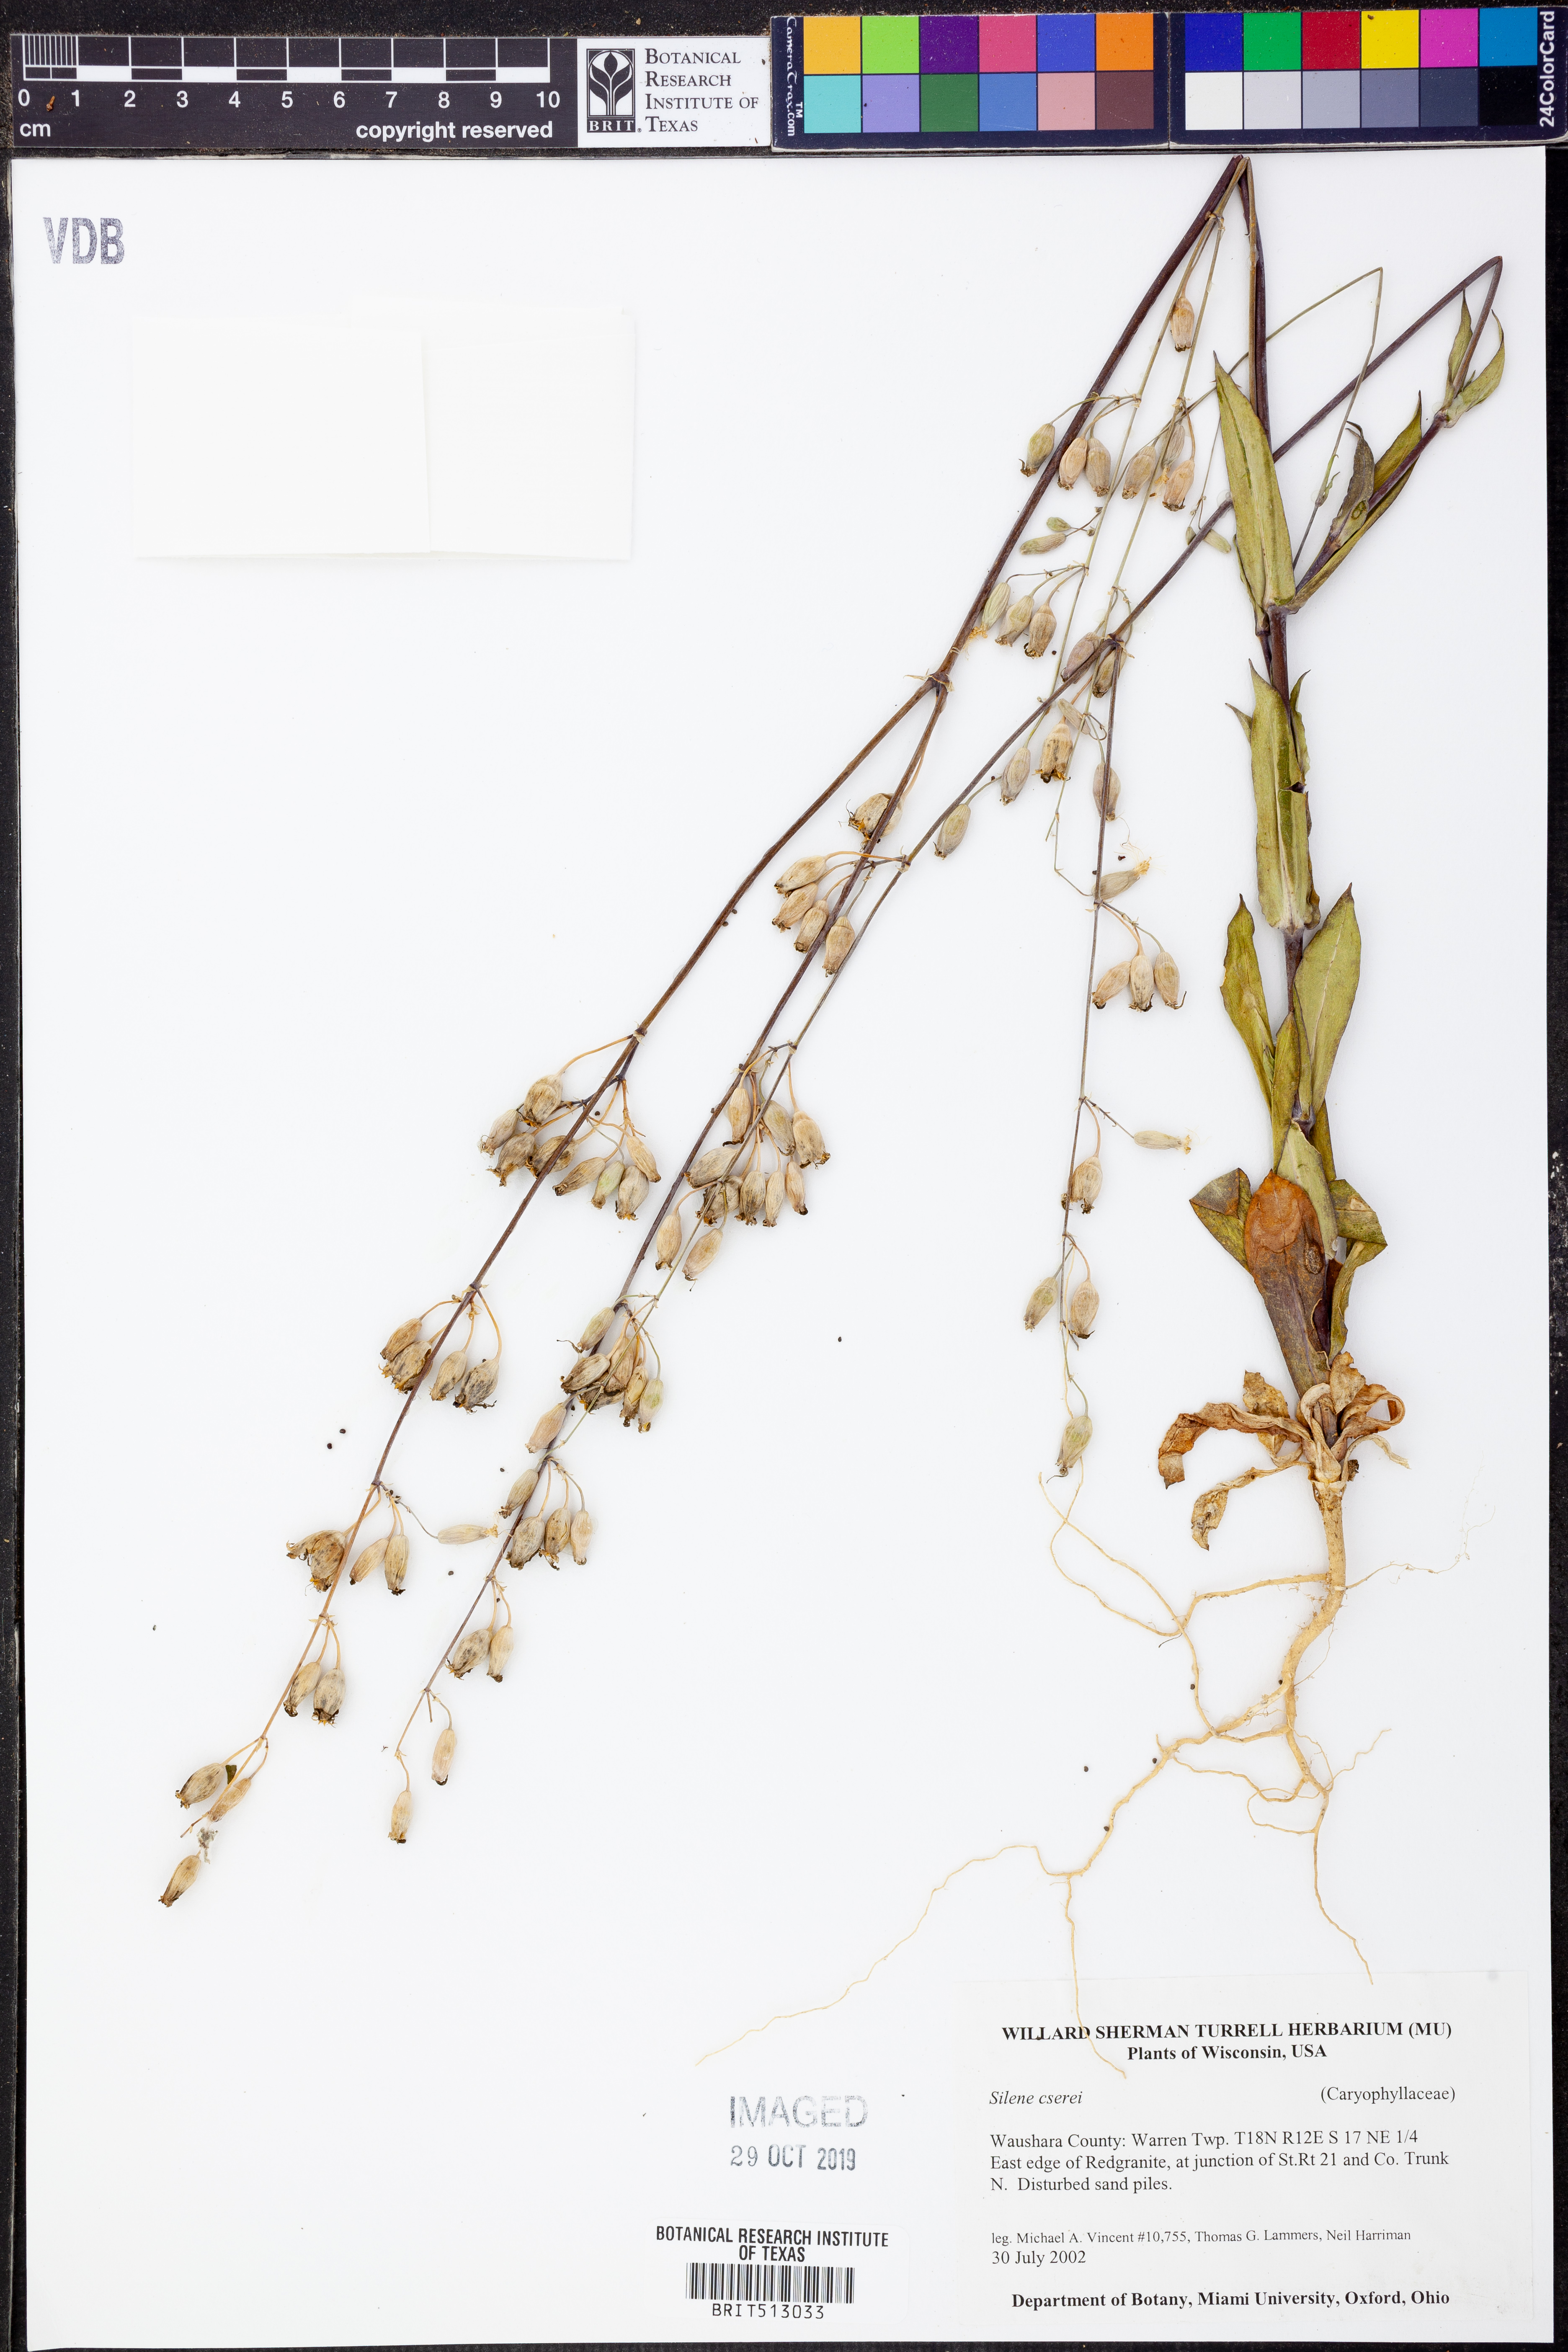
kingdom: Plantae
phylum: Tracheophyta
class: Magnoliopsida
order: Caryophyllales
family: Caryophyllaceae
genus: Silene
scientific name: Silene csereii
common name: Balkan catchfly
